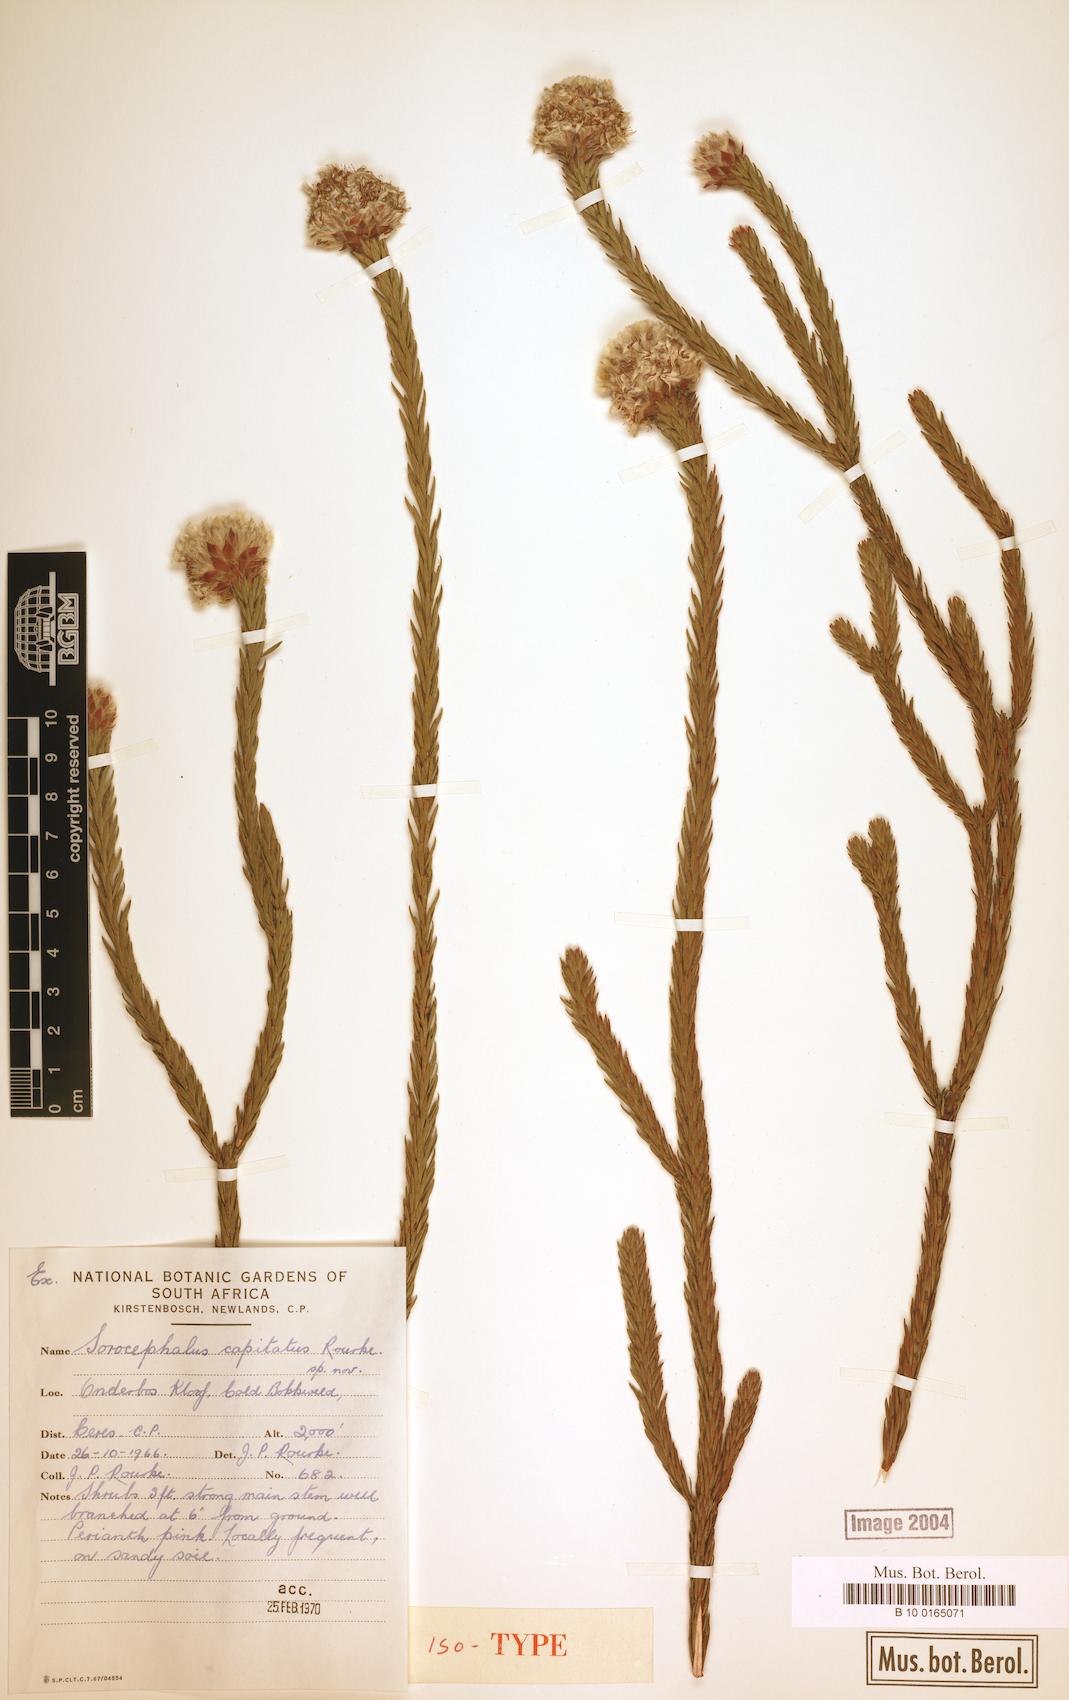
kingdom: Plantae
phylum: Tracheophyta
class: Magnoliopsida
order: Proteales
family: Proteaceae
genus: Sorocephalus
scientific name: Sorocephalus capitatus
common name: Woolly clusterhead
